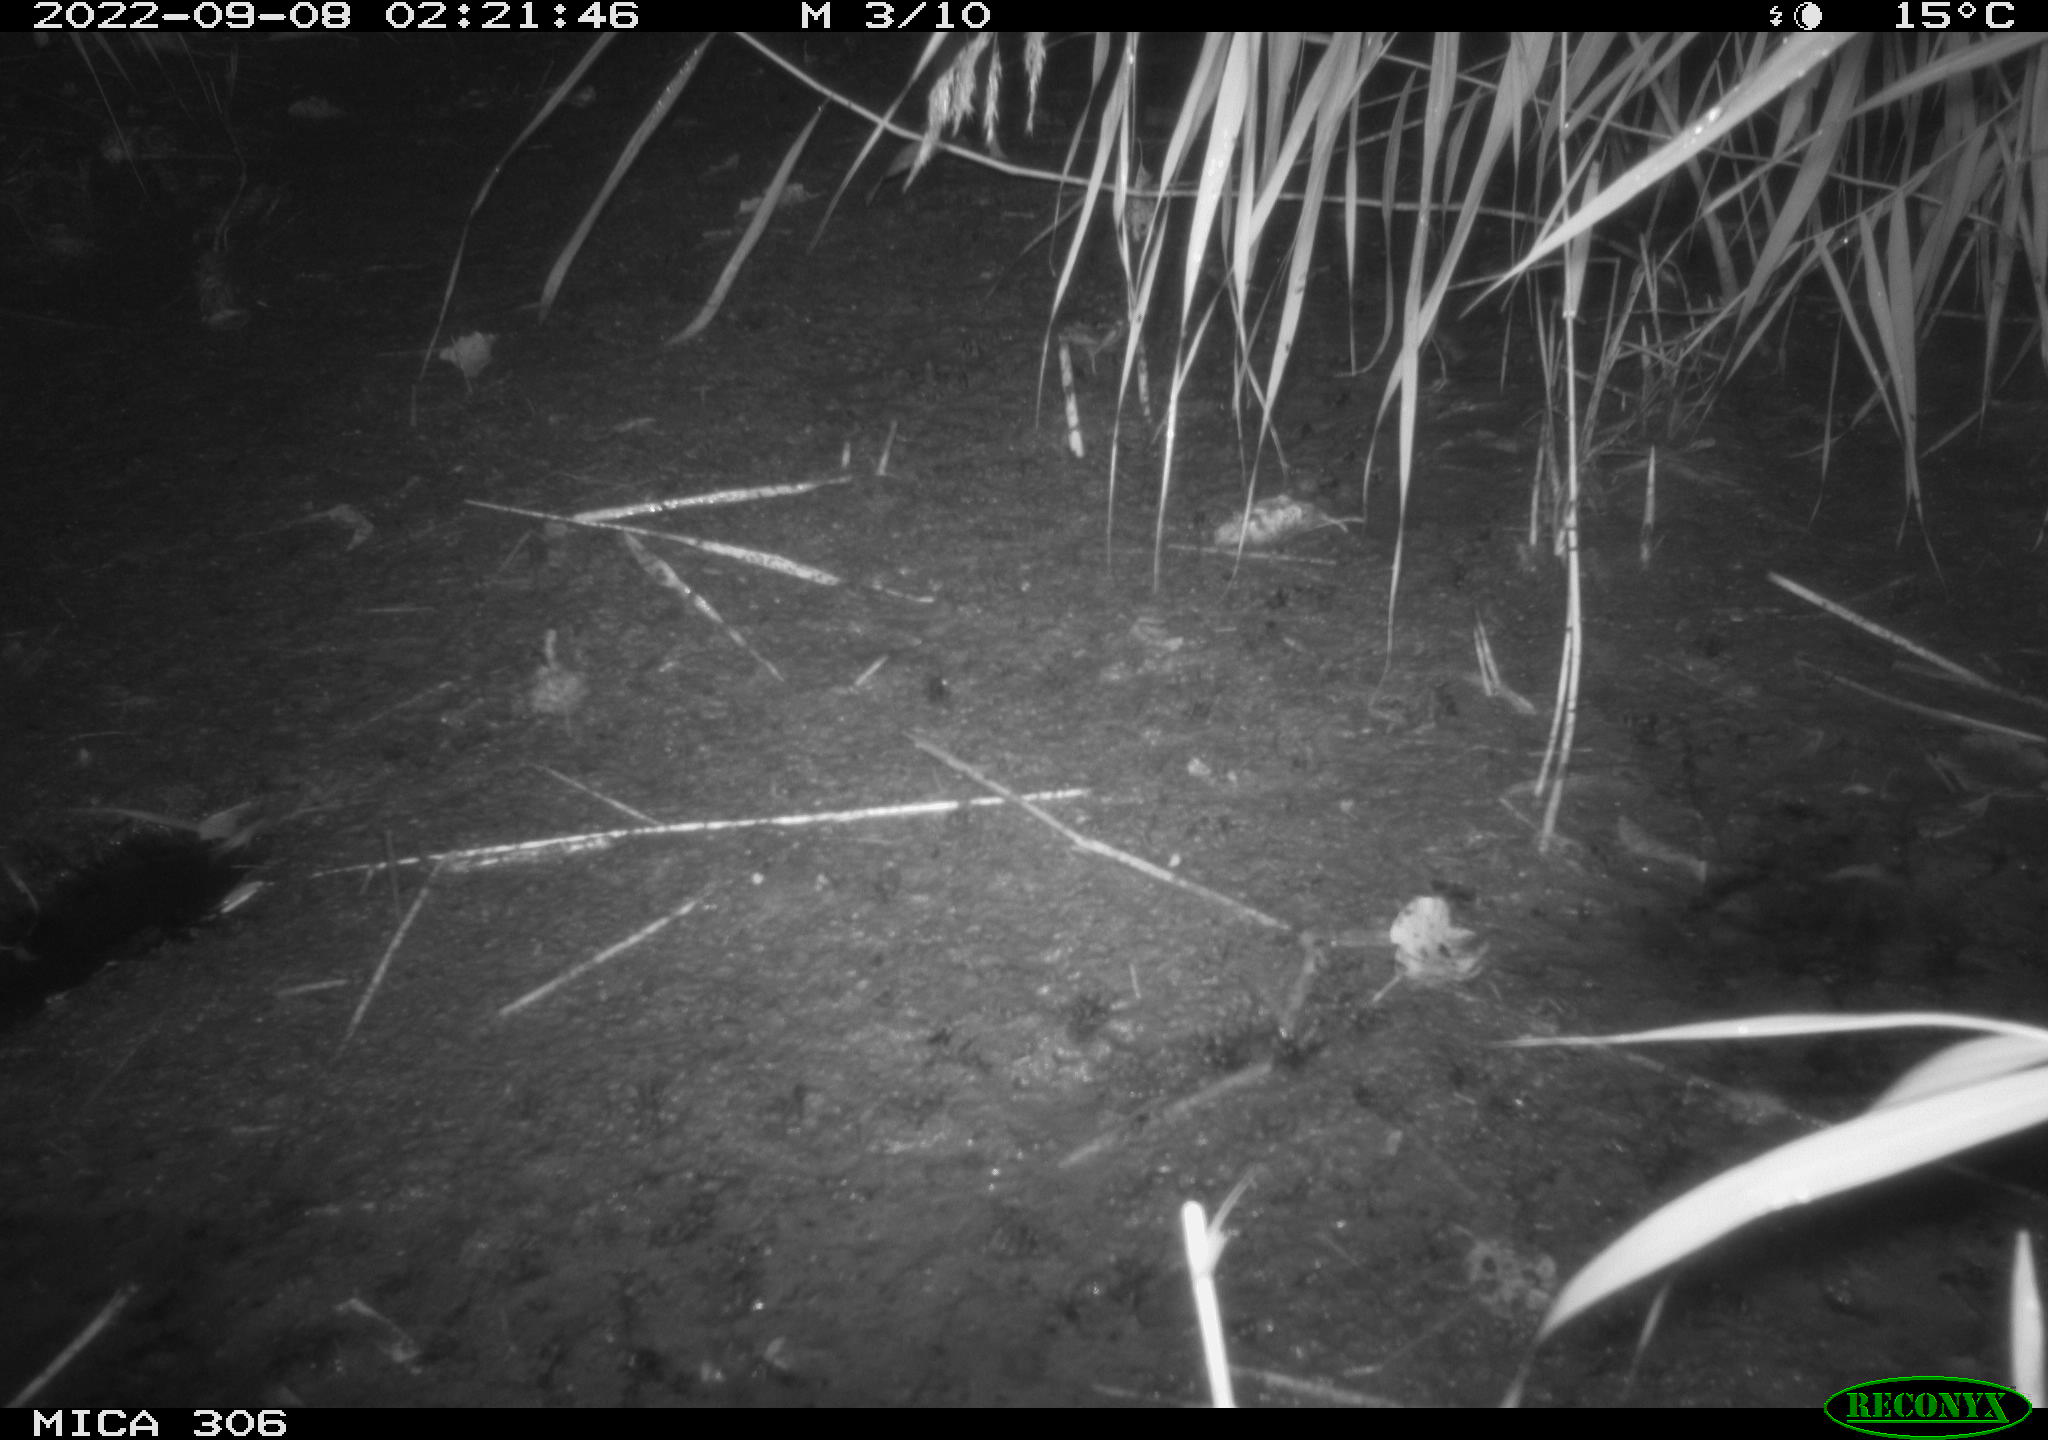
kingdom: Animalia
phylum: Chordata
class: Mammalia
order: Rodentia
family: Muridae
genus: Rattus
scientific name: Rattus norvegicus
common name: Brown rat
